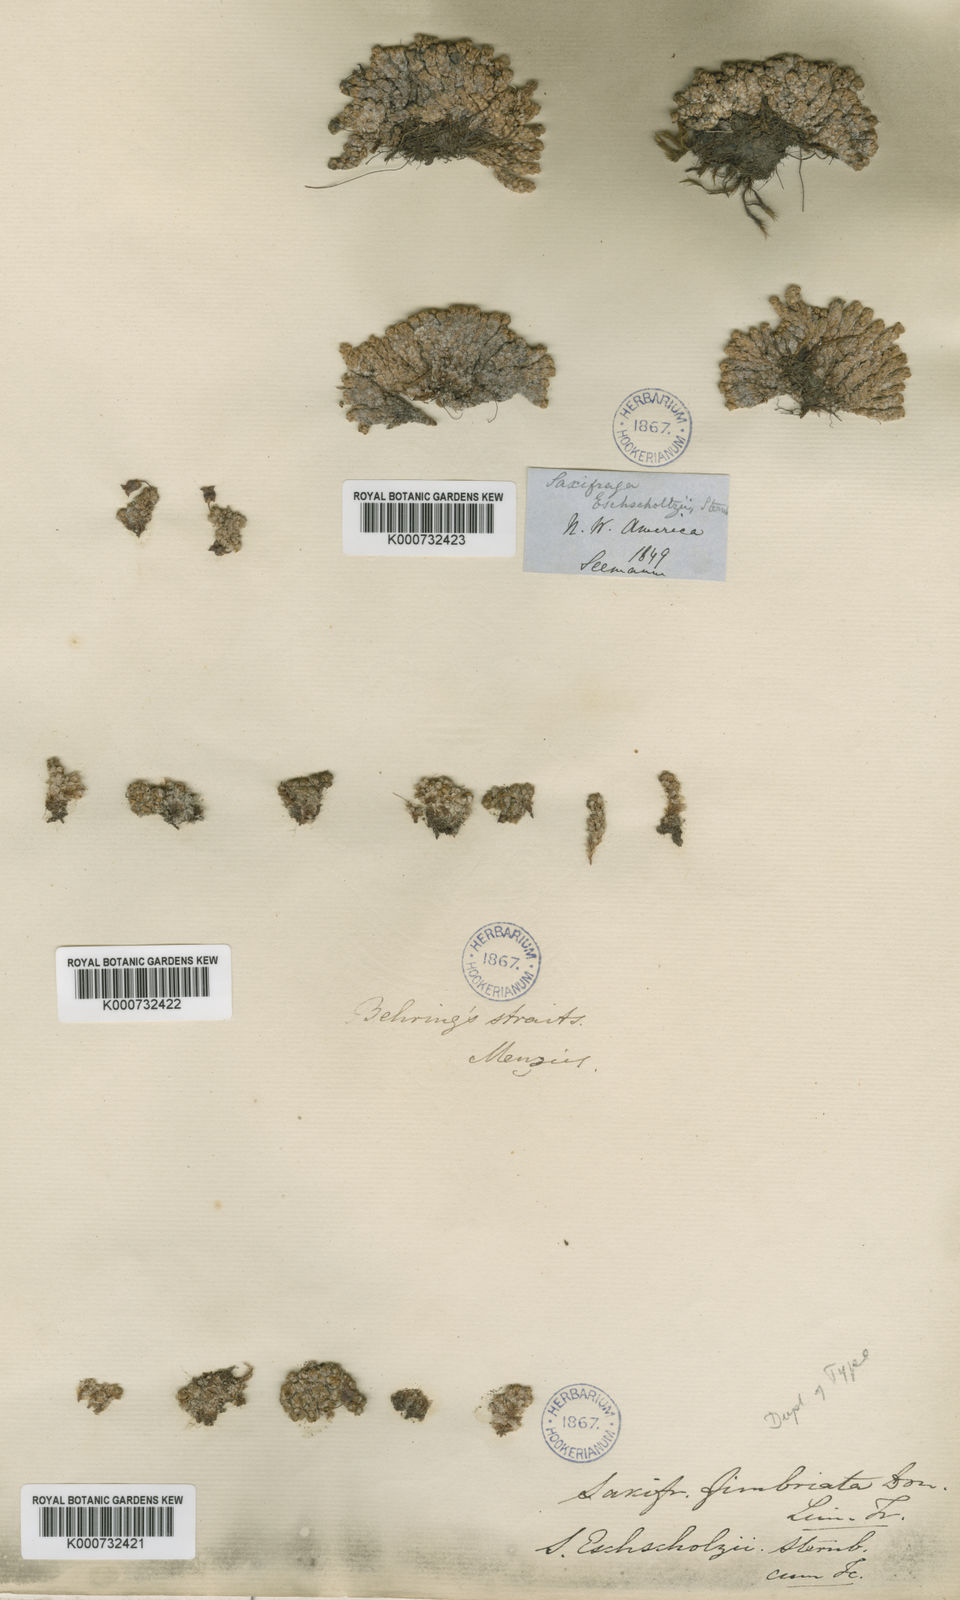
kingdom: Plantae
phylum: Tracheophyta
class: Magnoliopsida
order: Saxifragales
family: Saxifragaceae
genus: Saxifraga
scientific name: Saxifraga eschholzii
